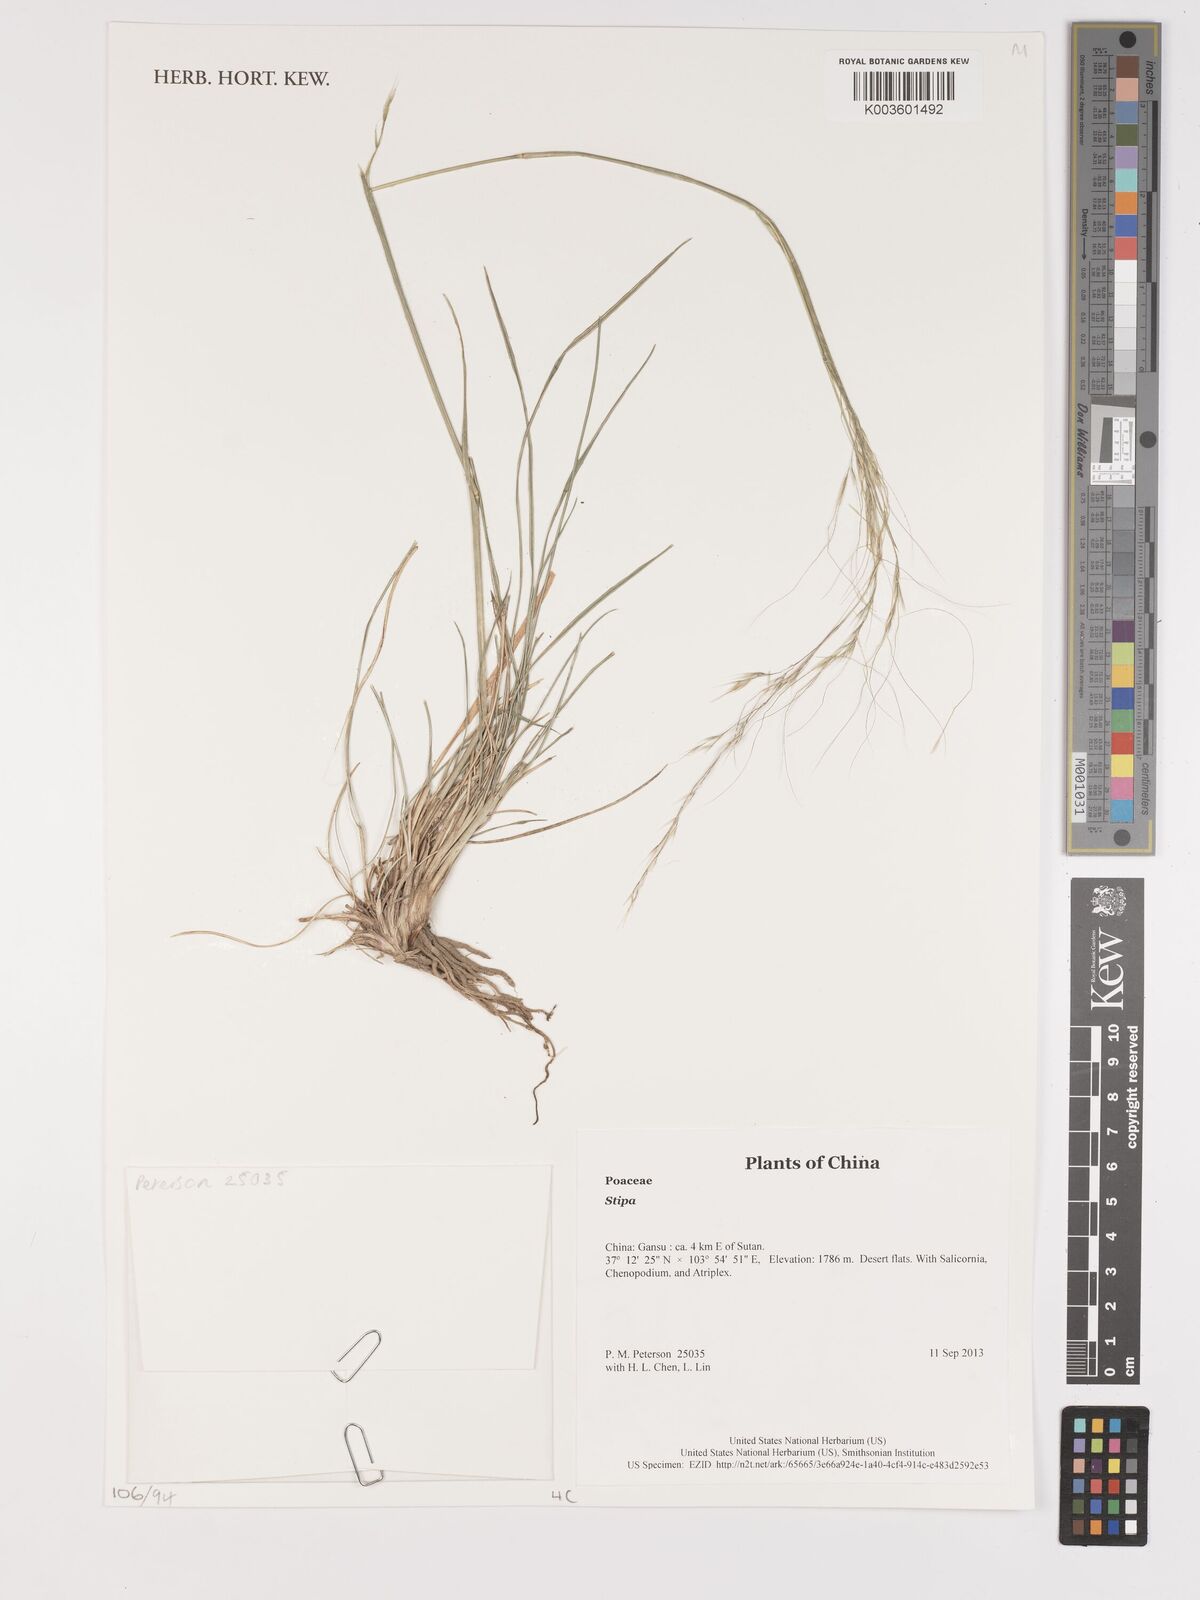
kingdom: Plantae
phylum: Tracheophyta
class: Liliopsida
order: Poales
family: Poaceae
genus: Stipa
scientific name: Stipa
